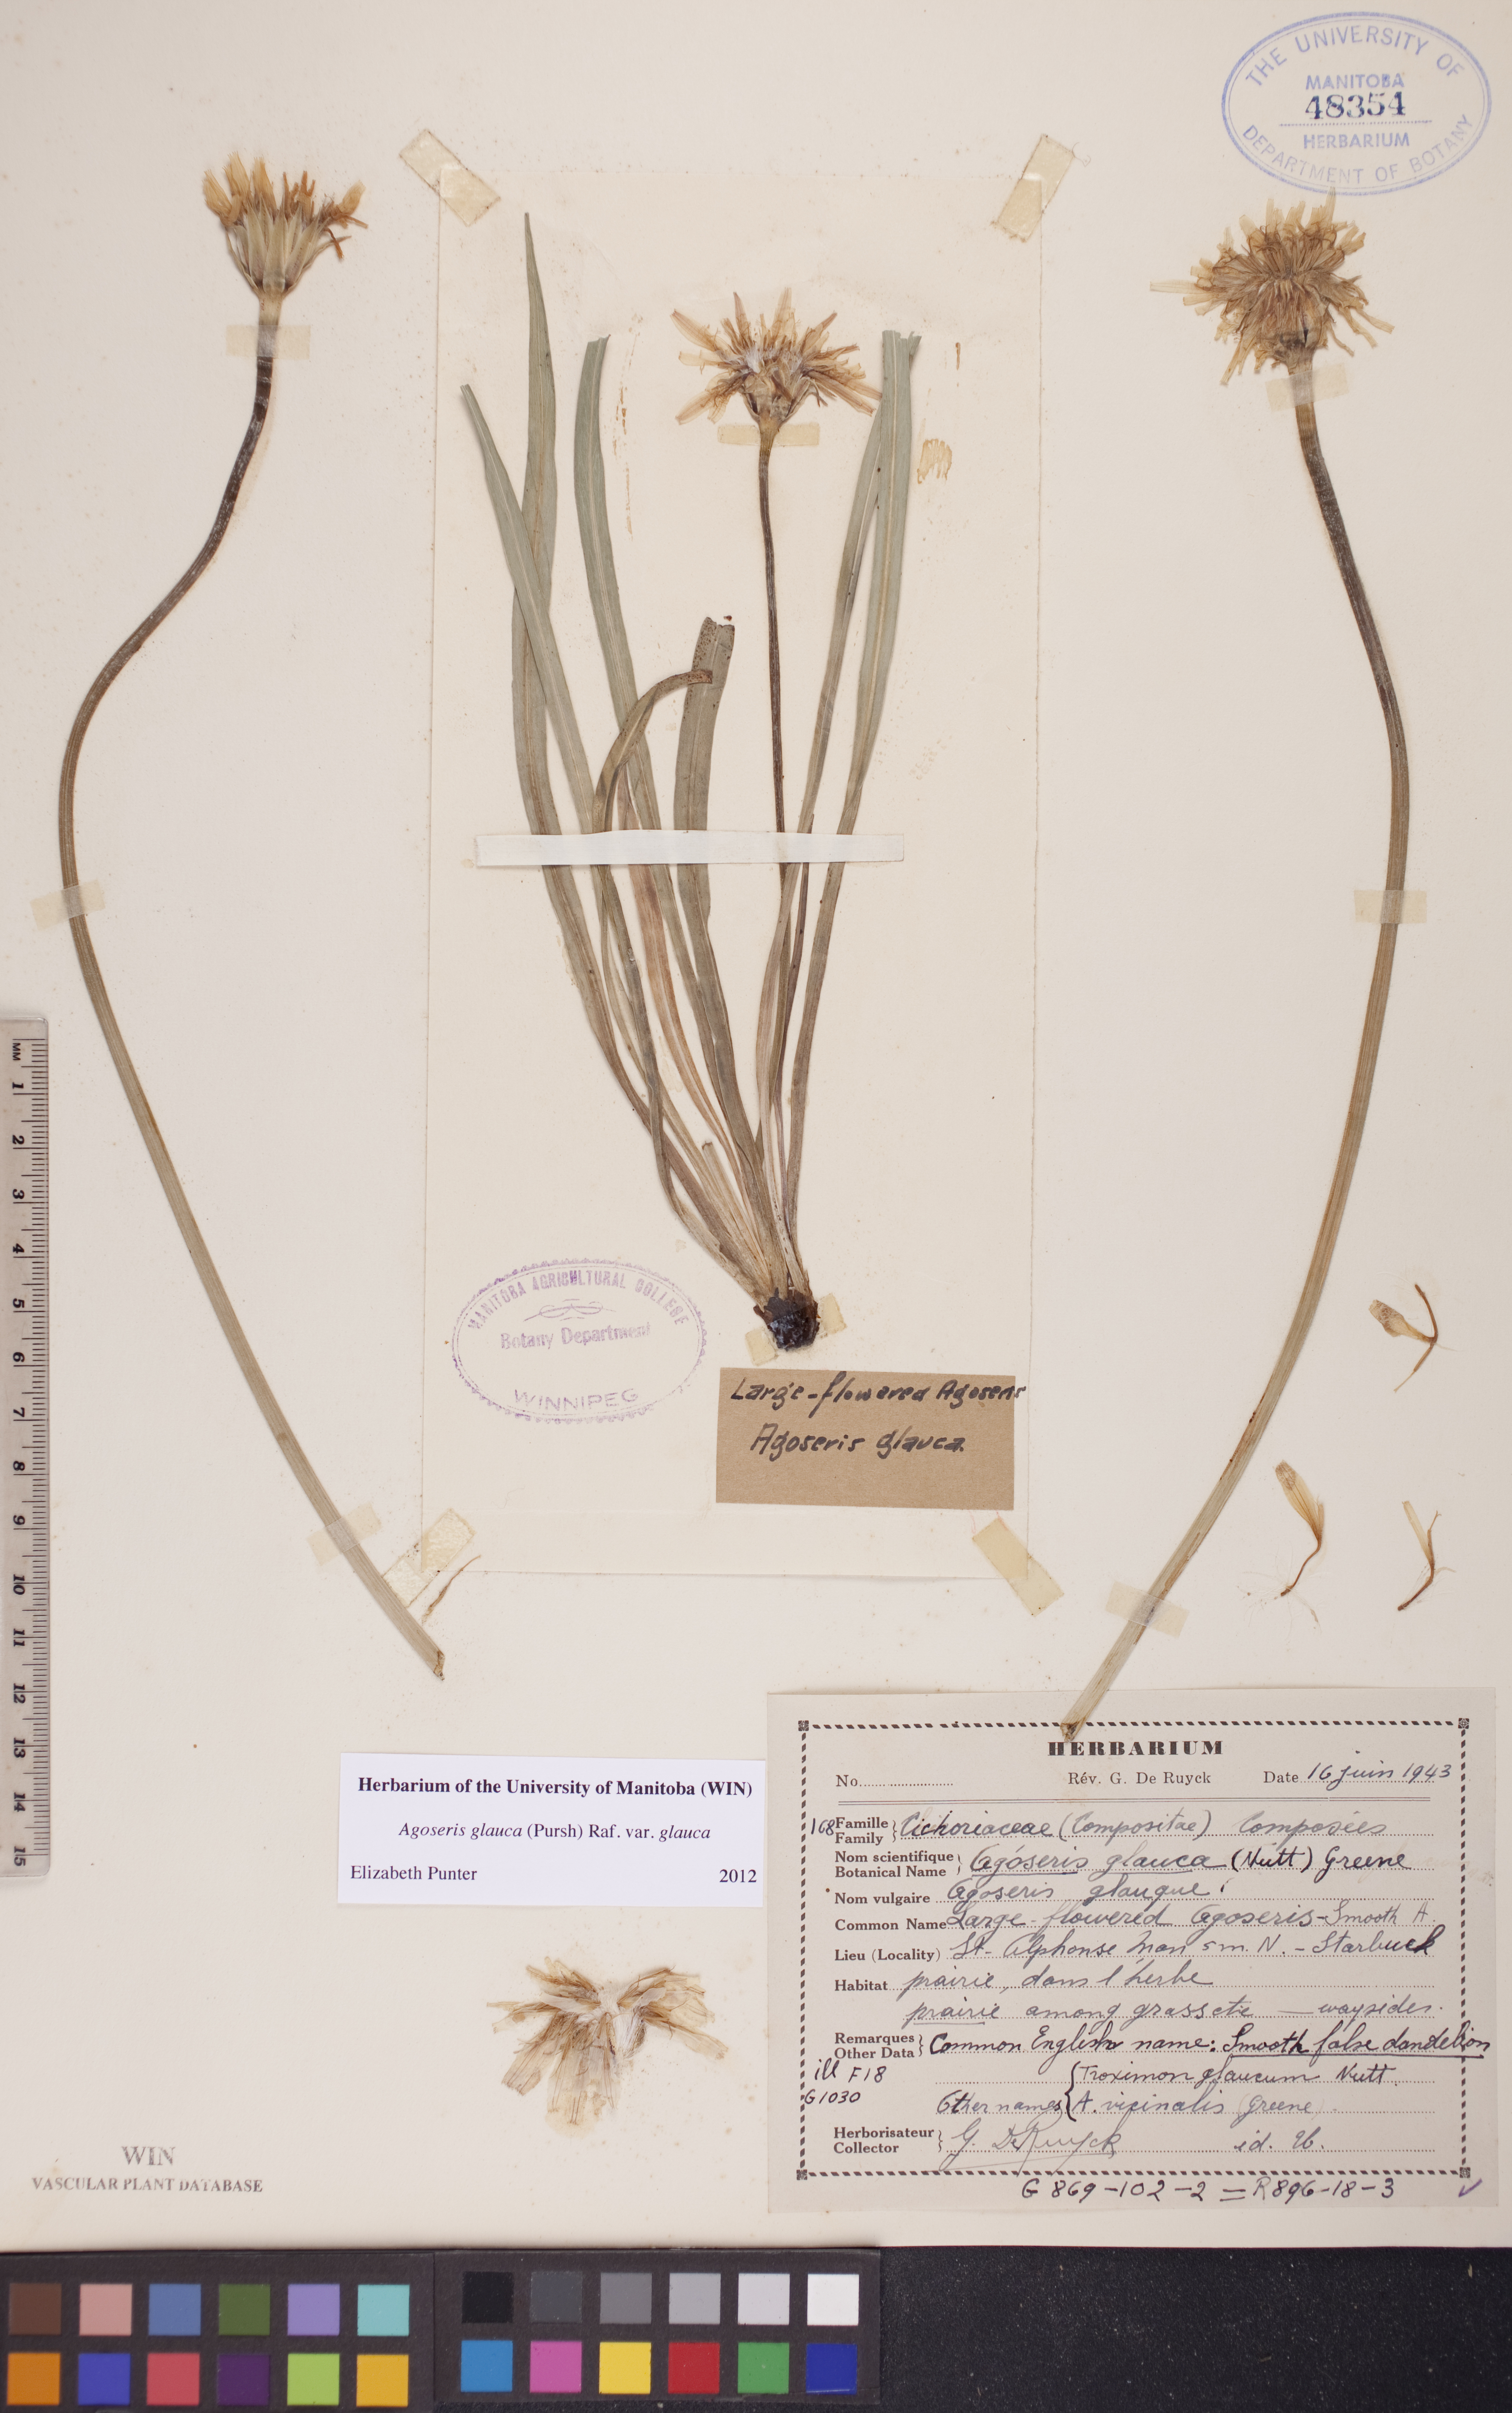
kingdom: Plantae
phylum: Tracheophyta
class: Magnoliopsida
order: Asterales
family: Asteraceae
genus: Agoseris
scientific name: Agoseris glauca
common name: Prairie agoseris
